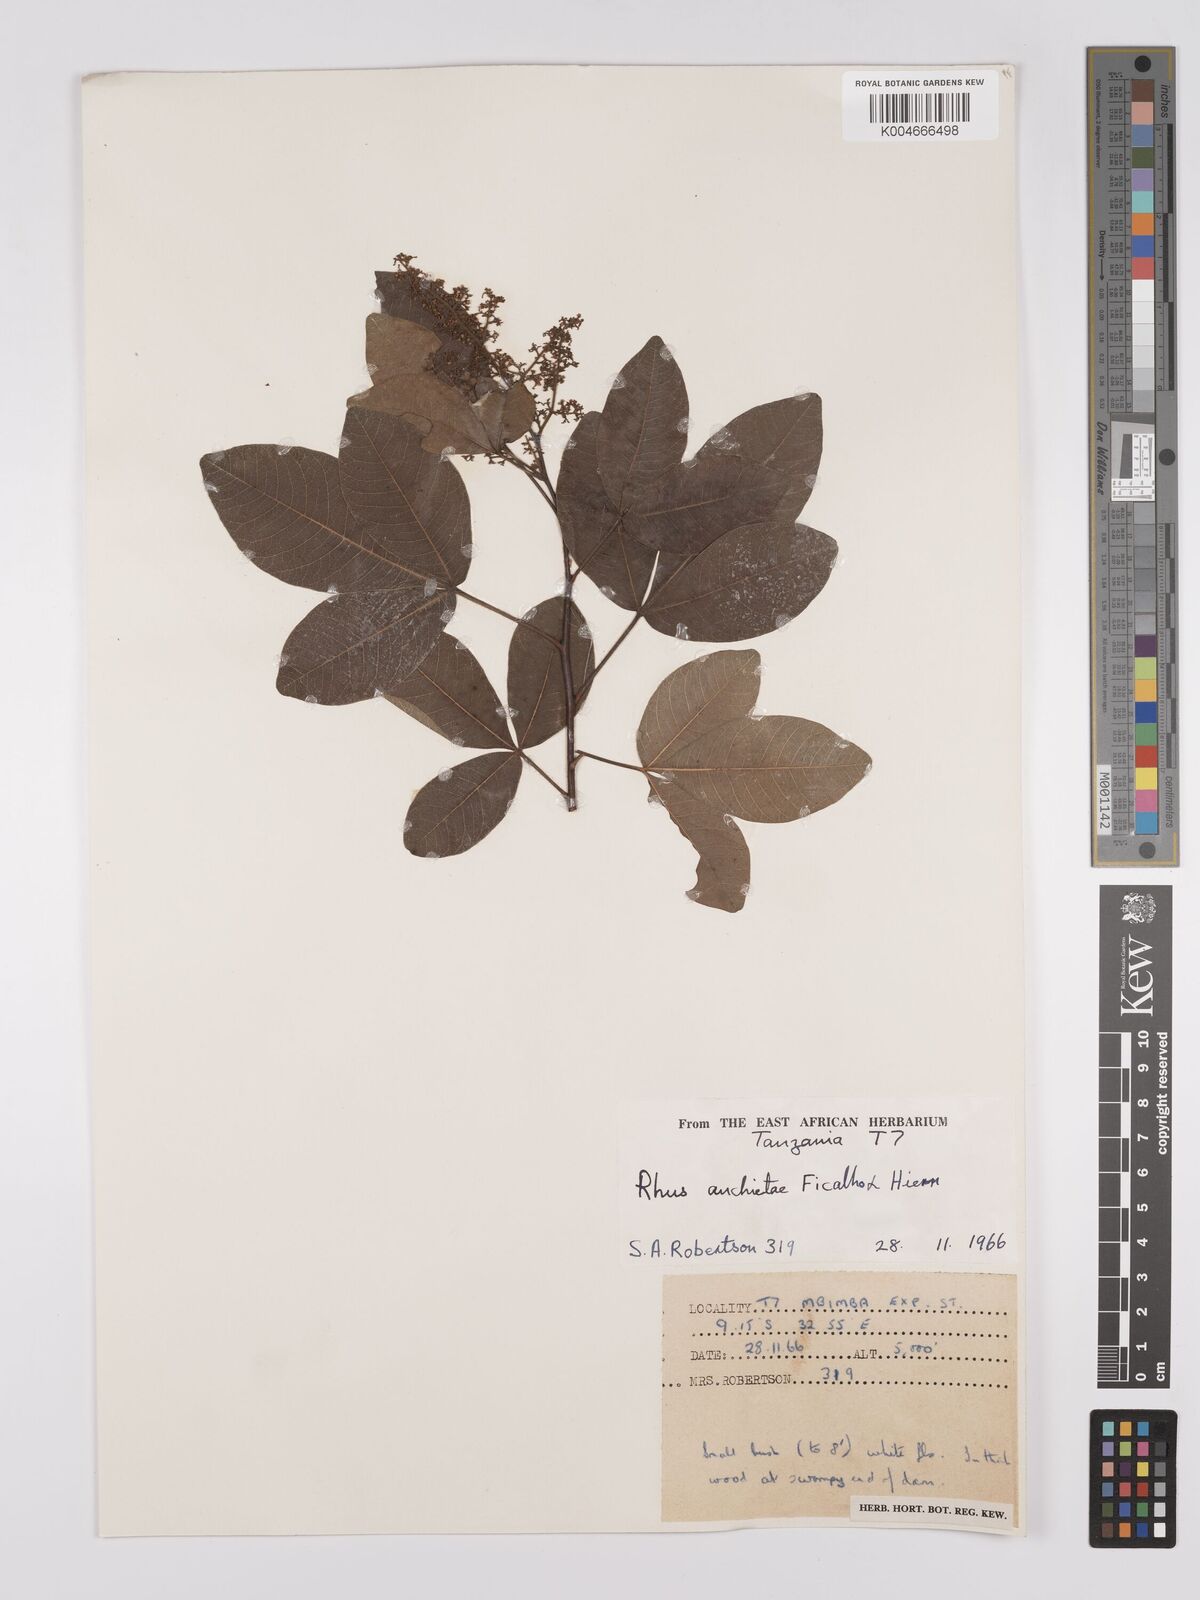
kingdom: Plantae
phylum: Tracheophyta
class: Magnoliopsida
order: Sapindales
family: Anacardiaceae
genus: Searsia
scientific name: Searsia anchietae
